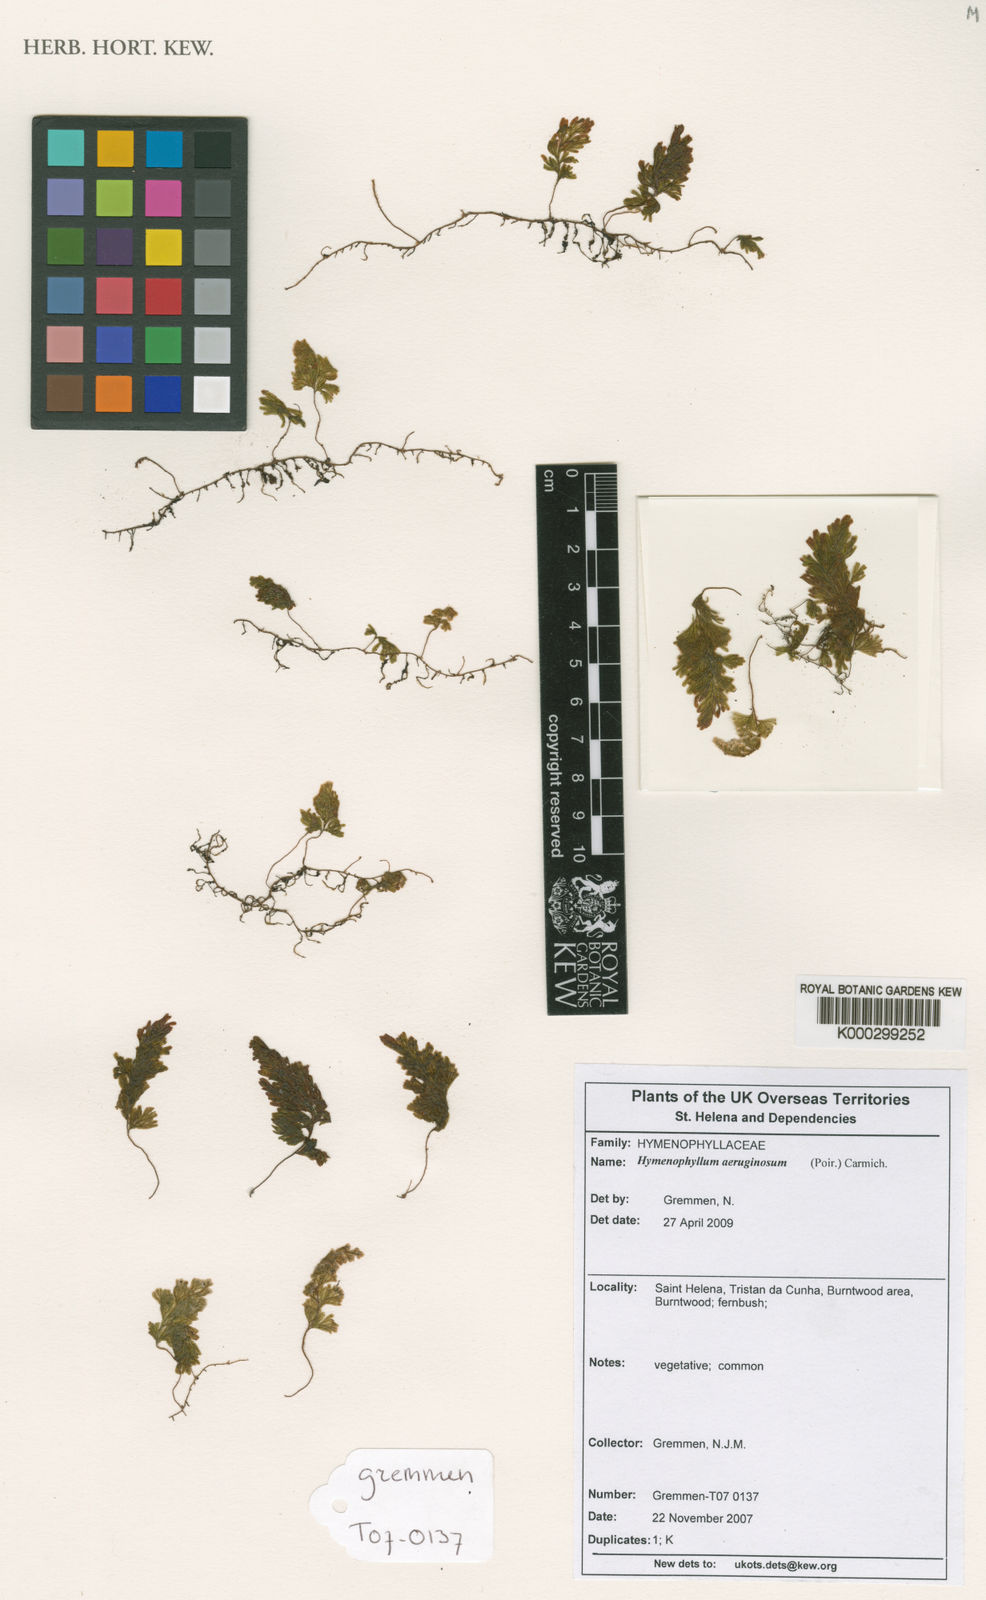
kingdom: Plantae
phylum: Tracheophyta
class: Polypodiopsida
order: Hymenophyllales
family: Hymenophyllaceae
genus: Hymenophyllum
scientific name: Hymenophyllum aeruginosum
